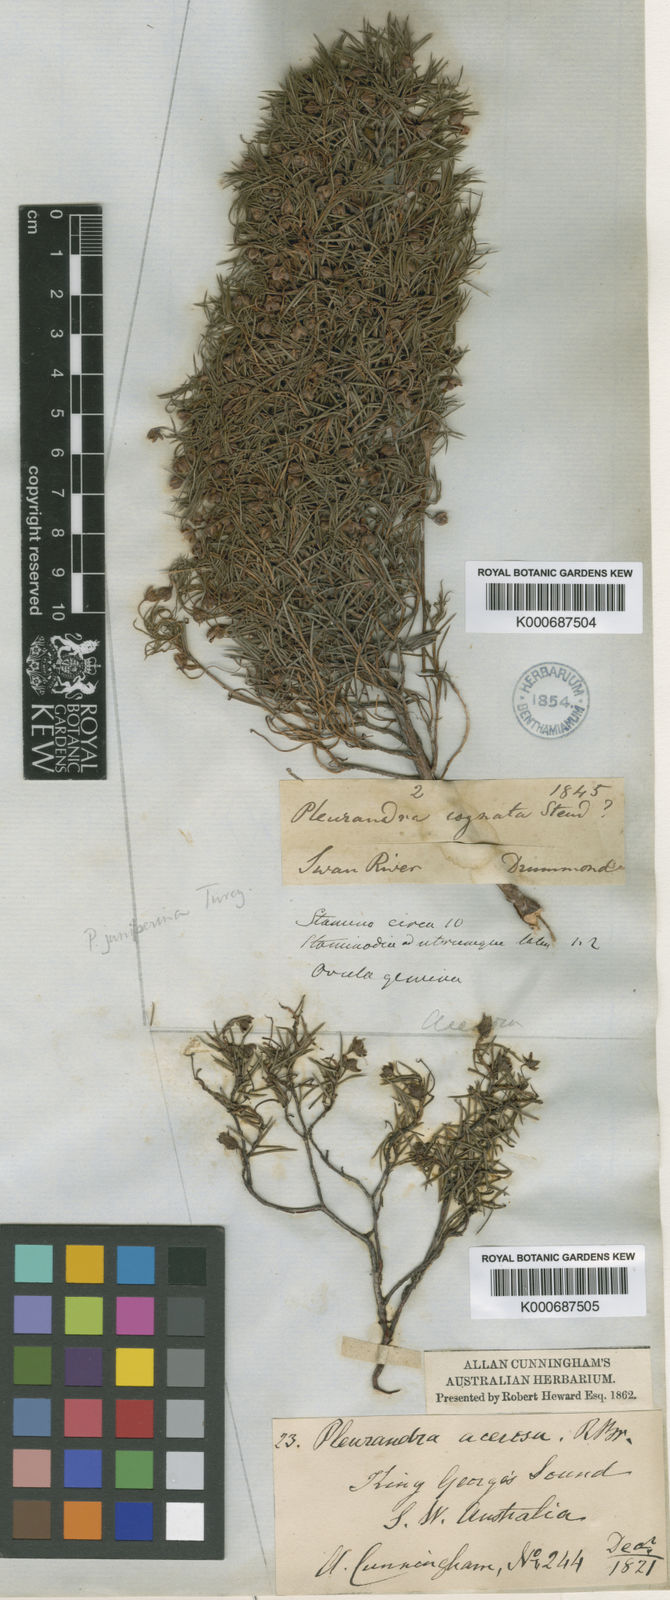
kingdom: Plantae
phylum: Tracheophyta
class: Magnoliopsida
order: Dilleniales
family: Dilleniaceae
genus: Hibbertia
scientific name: Hibbertia acerosa
